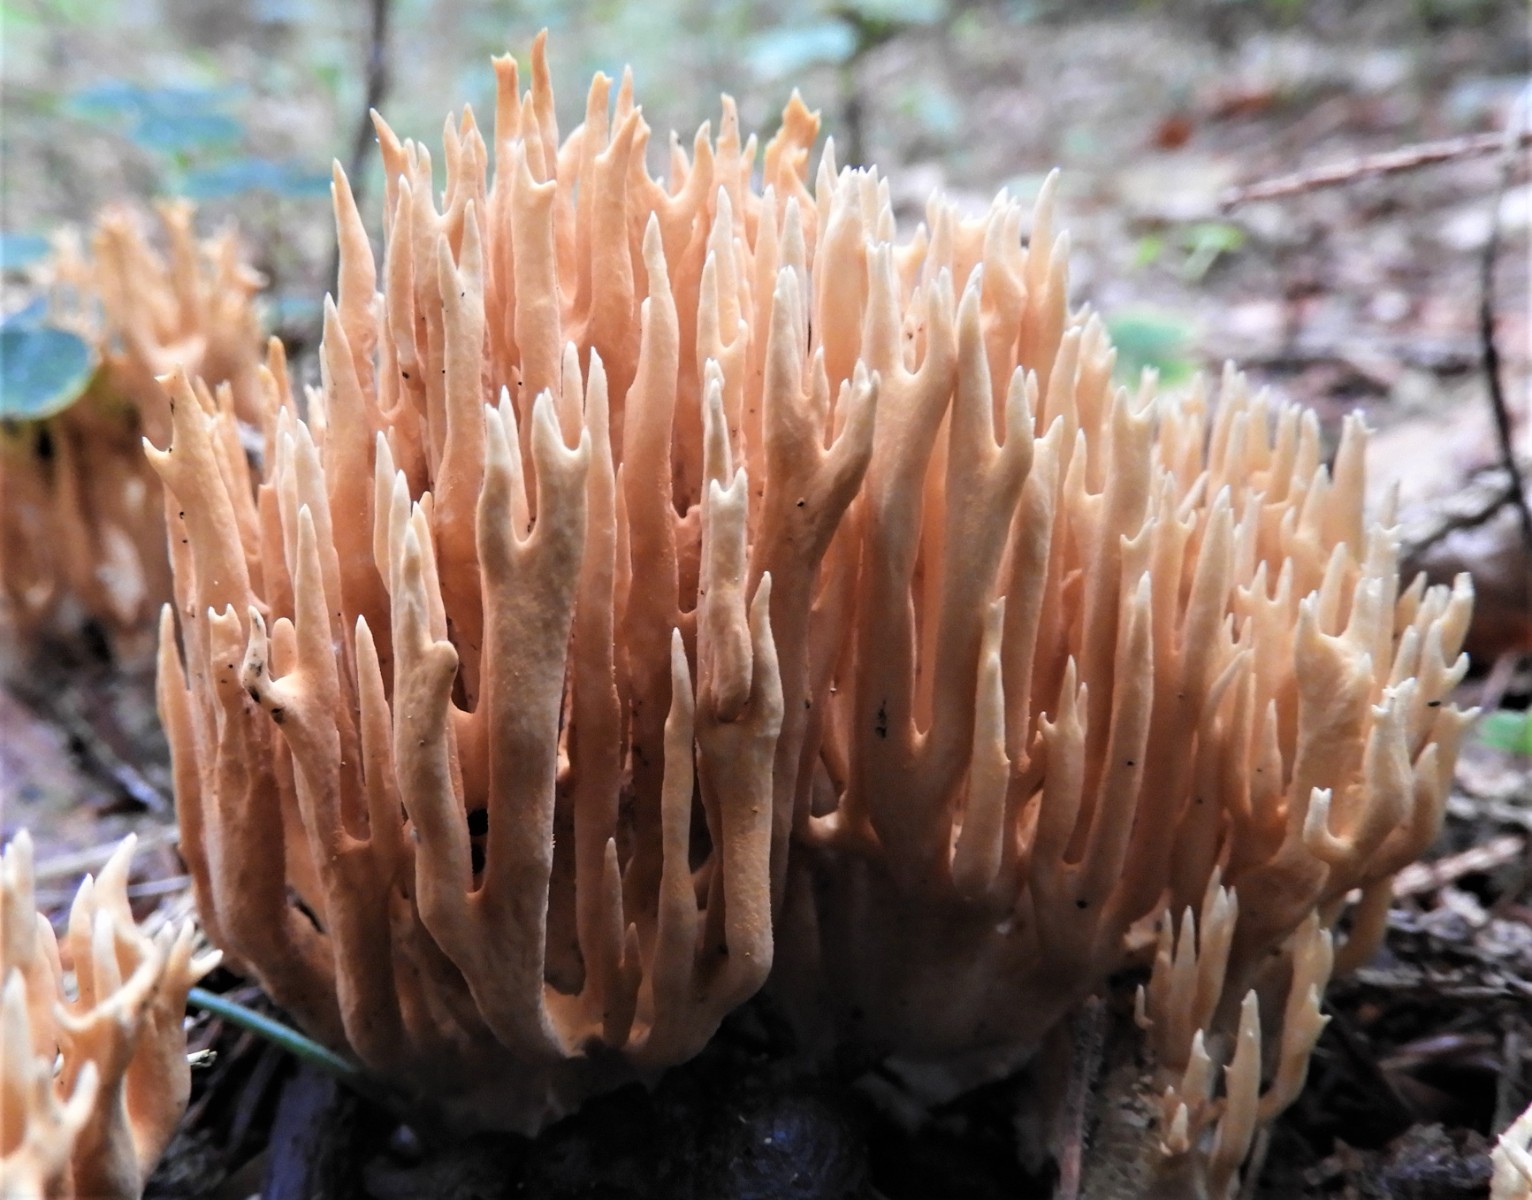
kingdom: Fungi
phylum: Basidiomycota
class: Agaricomycetes
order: Gomphales
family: Gomphaceae
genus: Phaeoclavulina
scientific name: Phaeoclavulina eumorpha
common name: gran-koralsvamp
